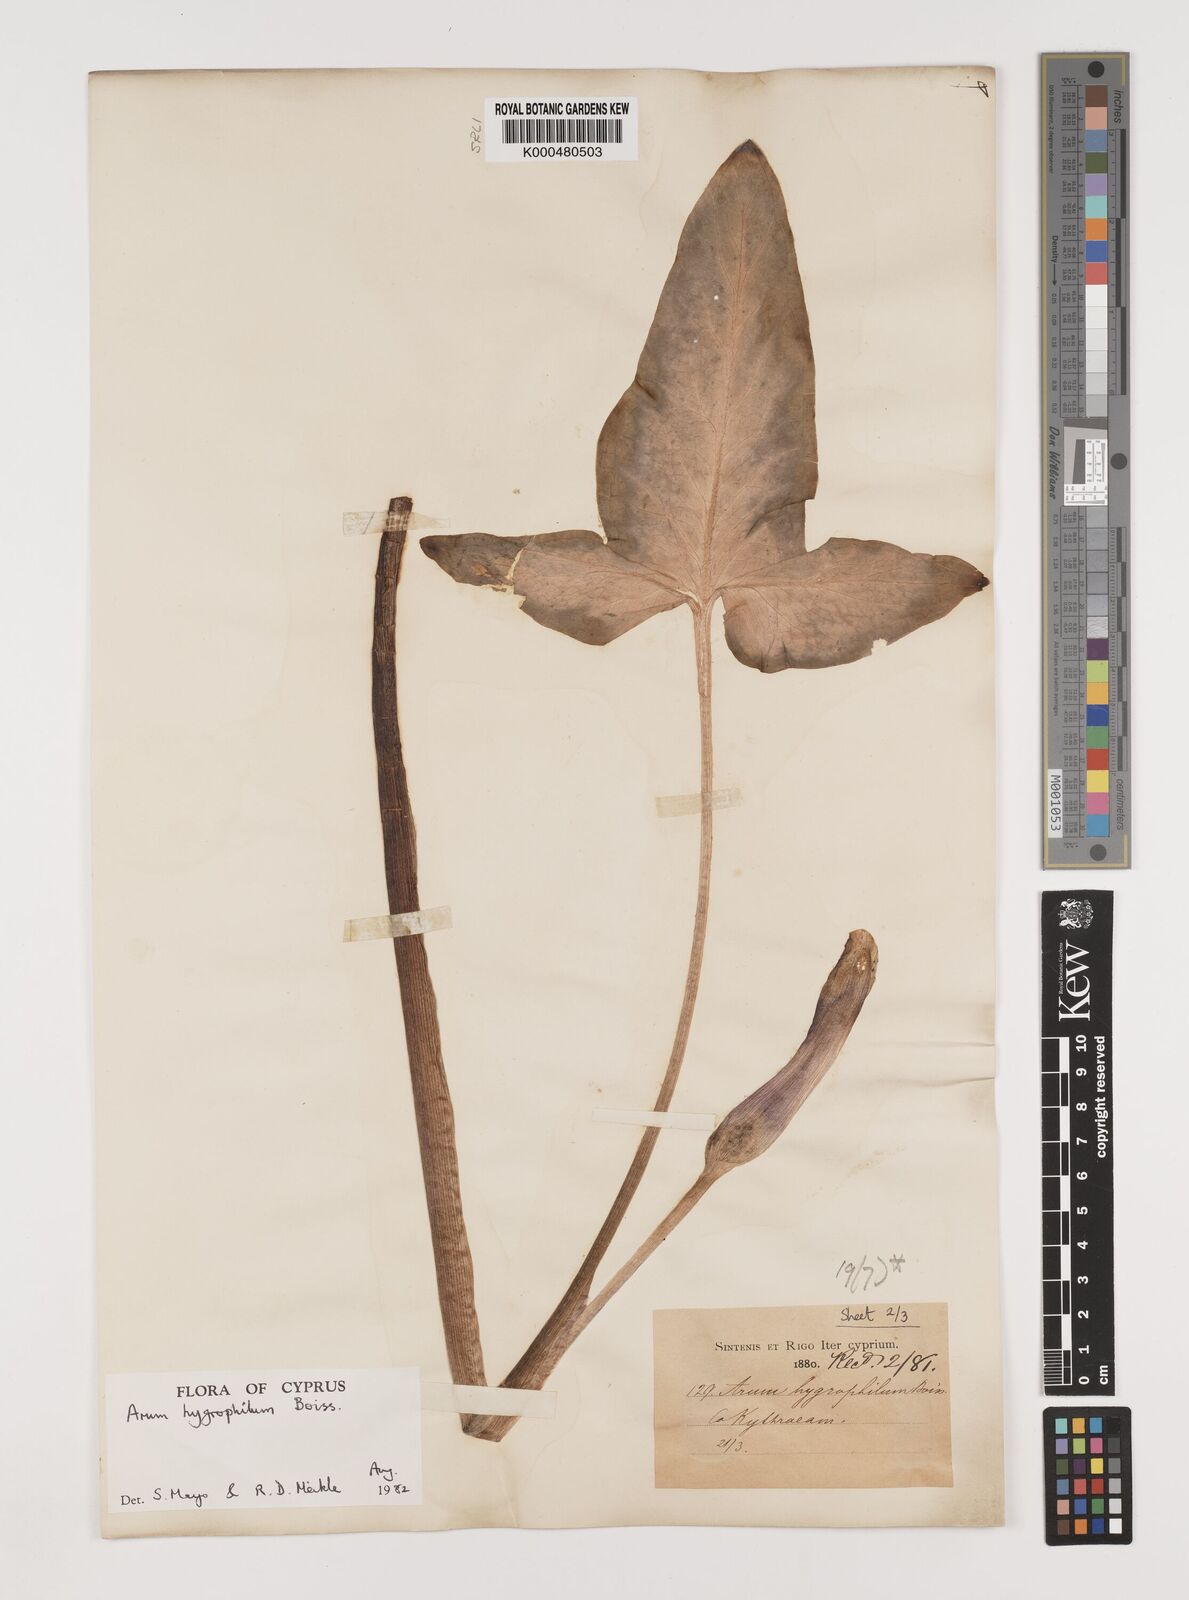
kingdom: Plantae
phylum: Tracheophyta
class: Liliopsida
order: Alismatales
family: Araceae
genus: Arum
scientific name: Arum hygrophilum
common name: Water arum
